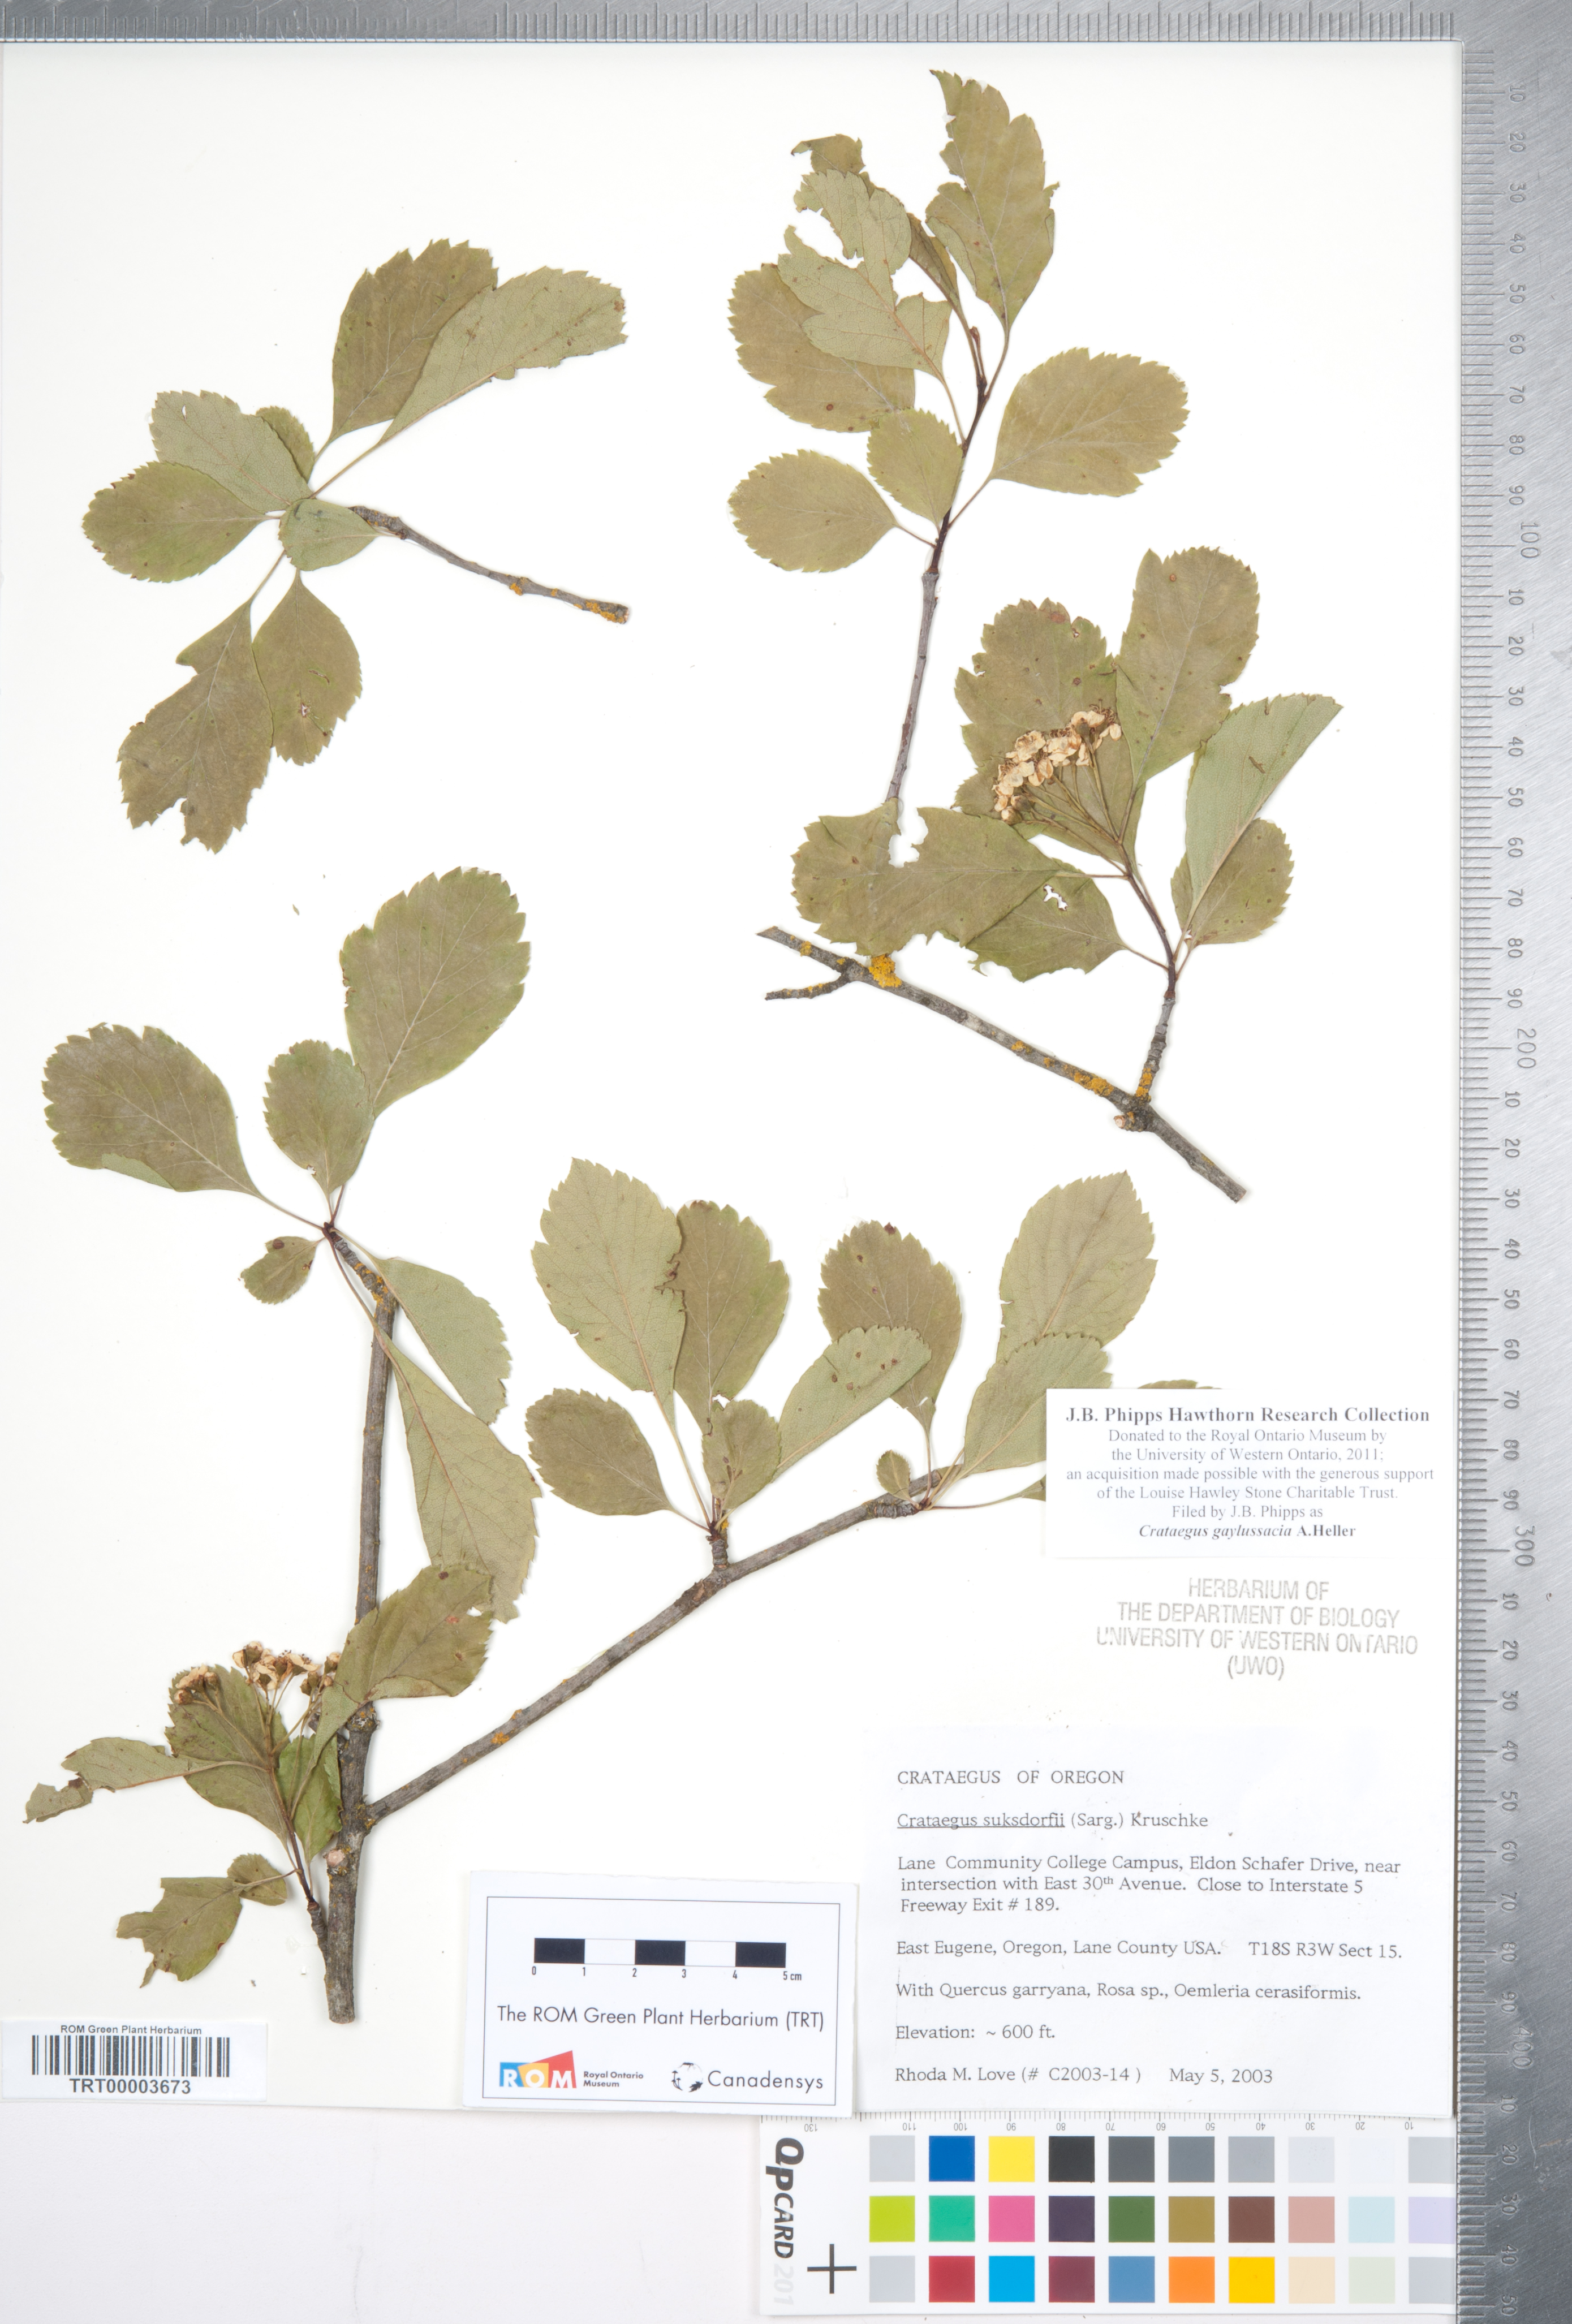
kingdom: Plantae
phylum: Tracheophyta
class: Magnoliopsida
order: Rosales
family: Rosaceae
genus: Crataegus
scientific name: Crataegus gaylussacia
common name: Huckleberry hawthorn
